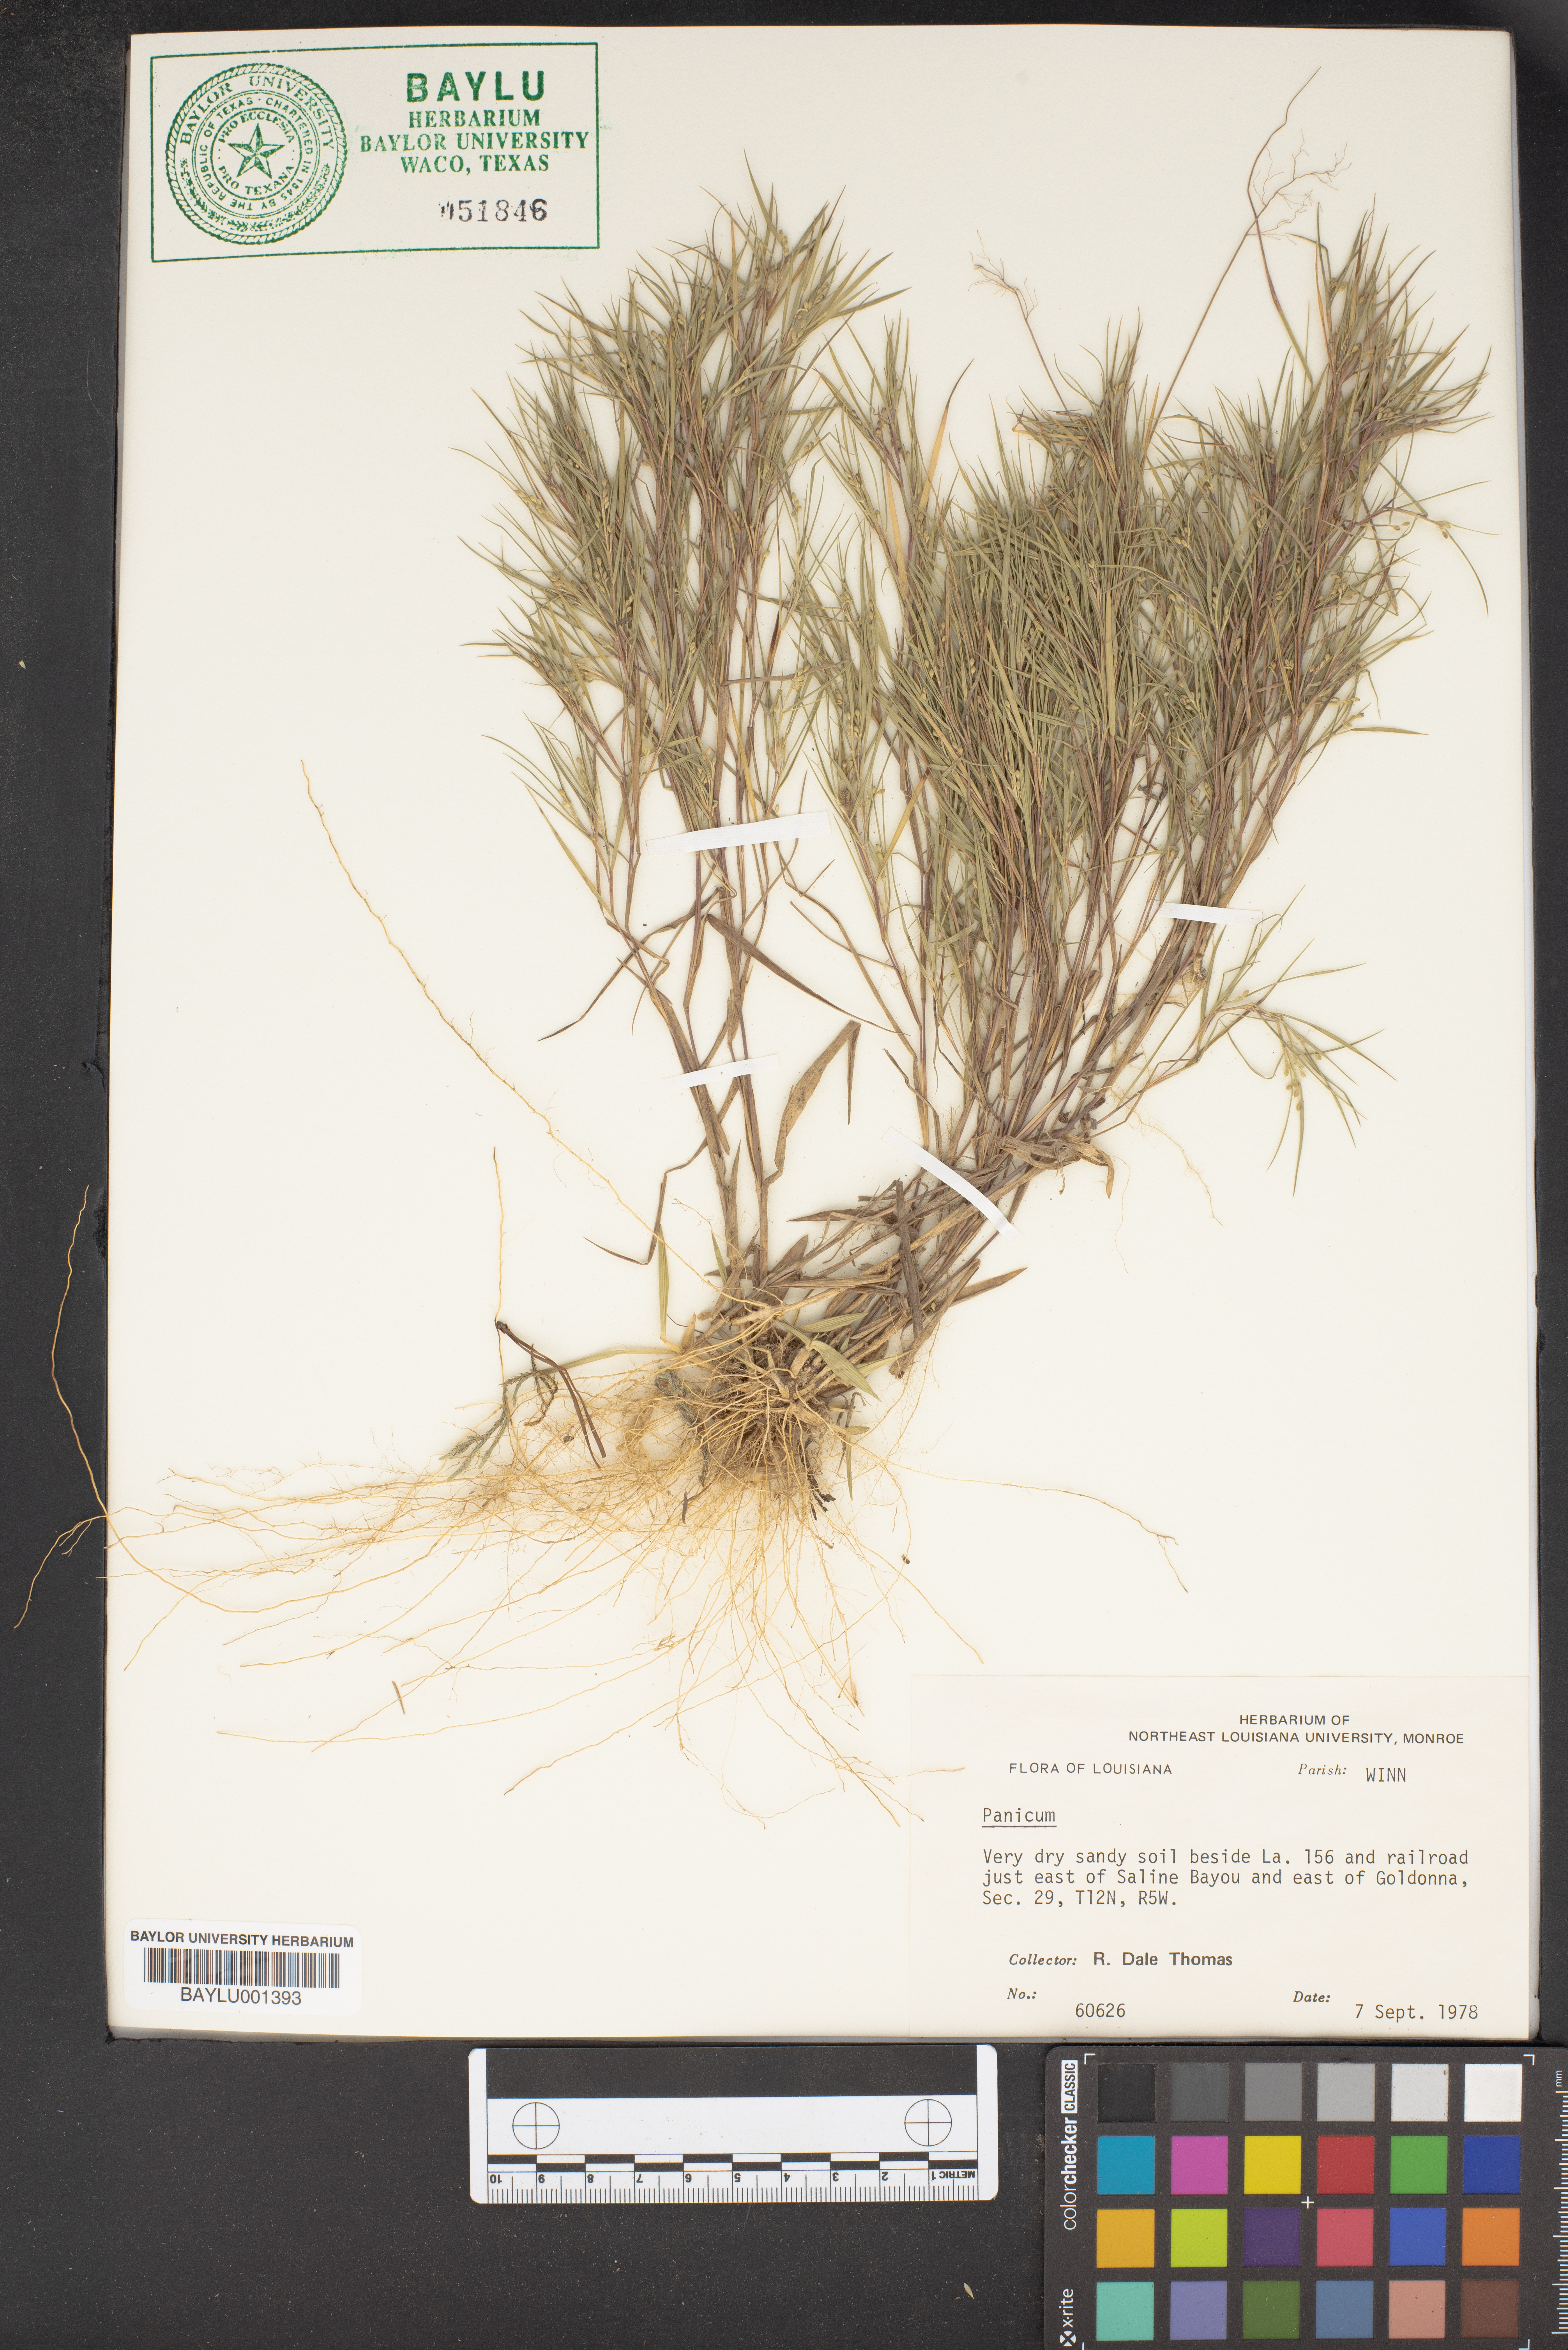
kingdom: Plantae
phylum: Tracheophyta
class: Liliopsida
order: Poales
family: Poaceae
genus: Panicum
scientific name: Panicum
